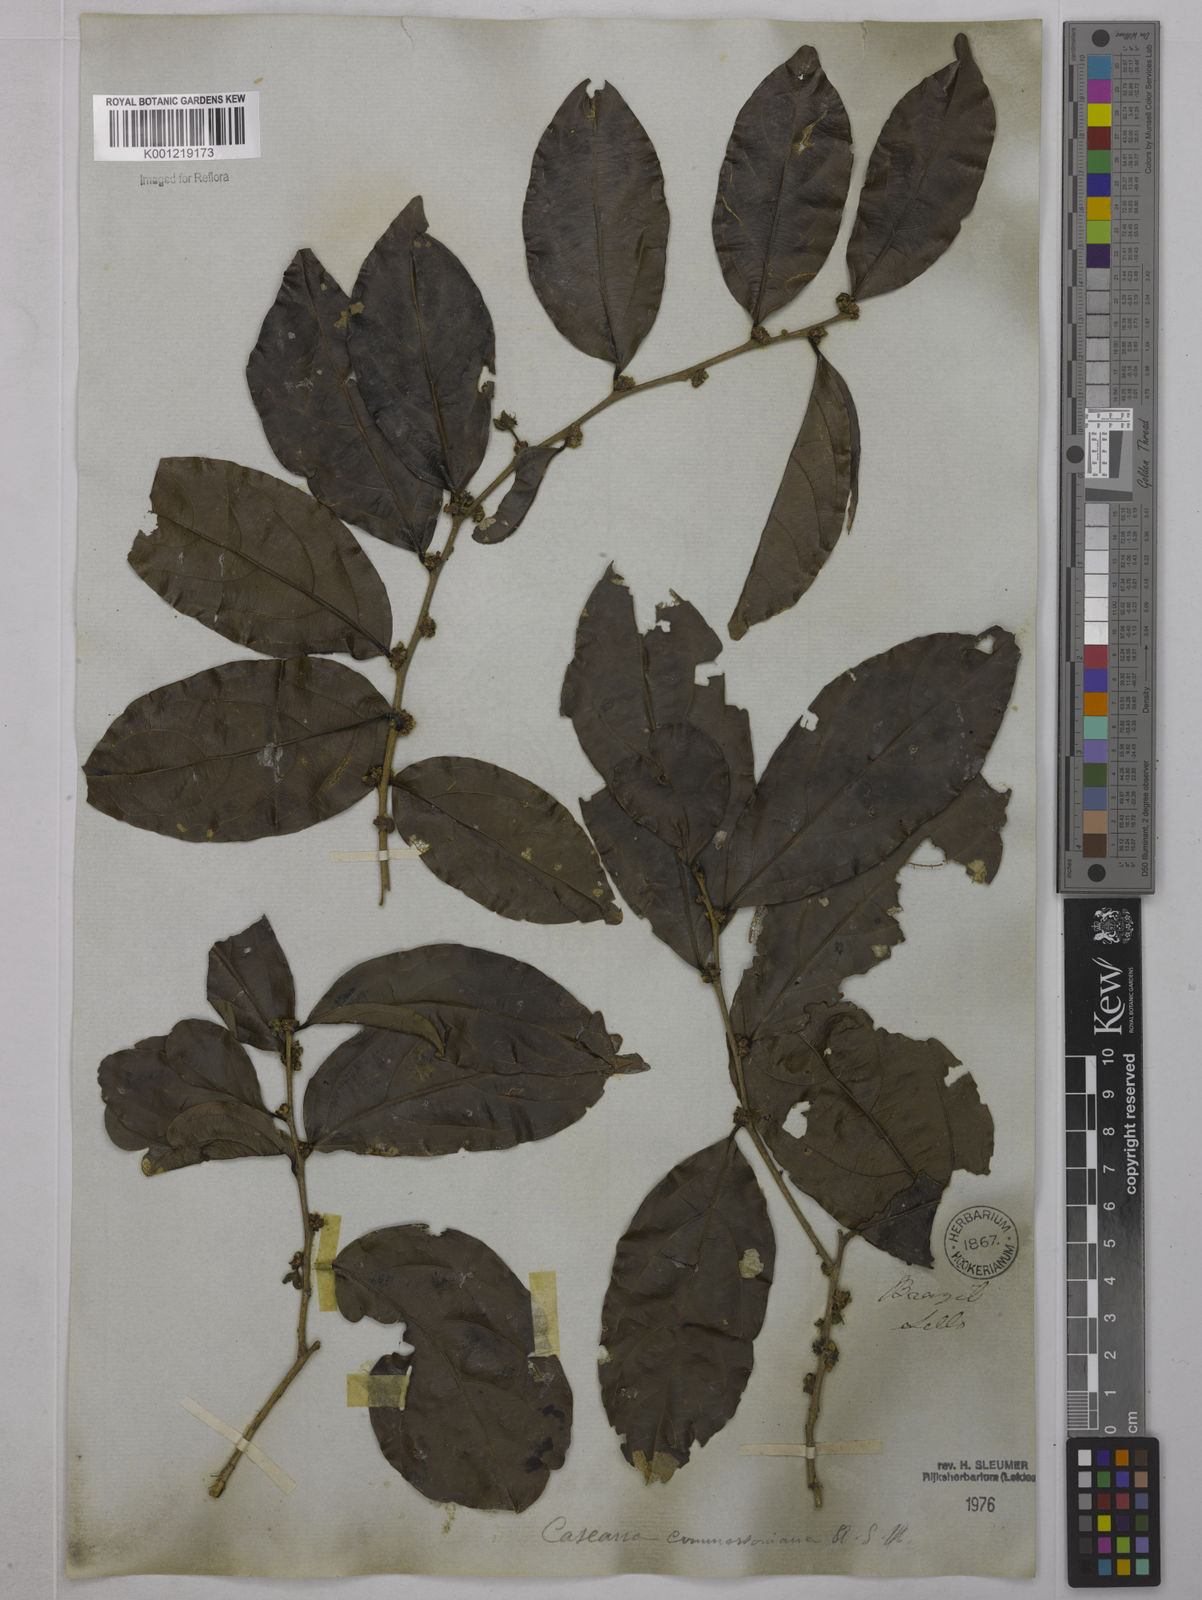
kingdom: Plantae
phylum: Tracheophyta
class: Magnoliopsida
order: Malpighiales
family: Salicaceae
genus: Piparea
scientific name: Piparea dentata
